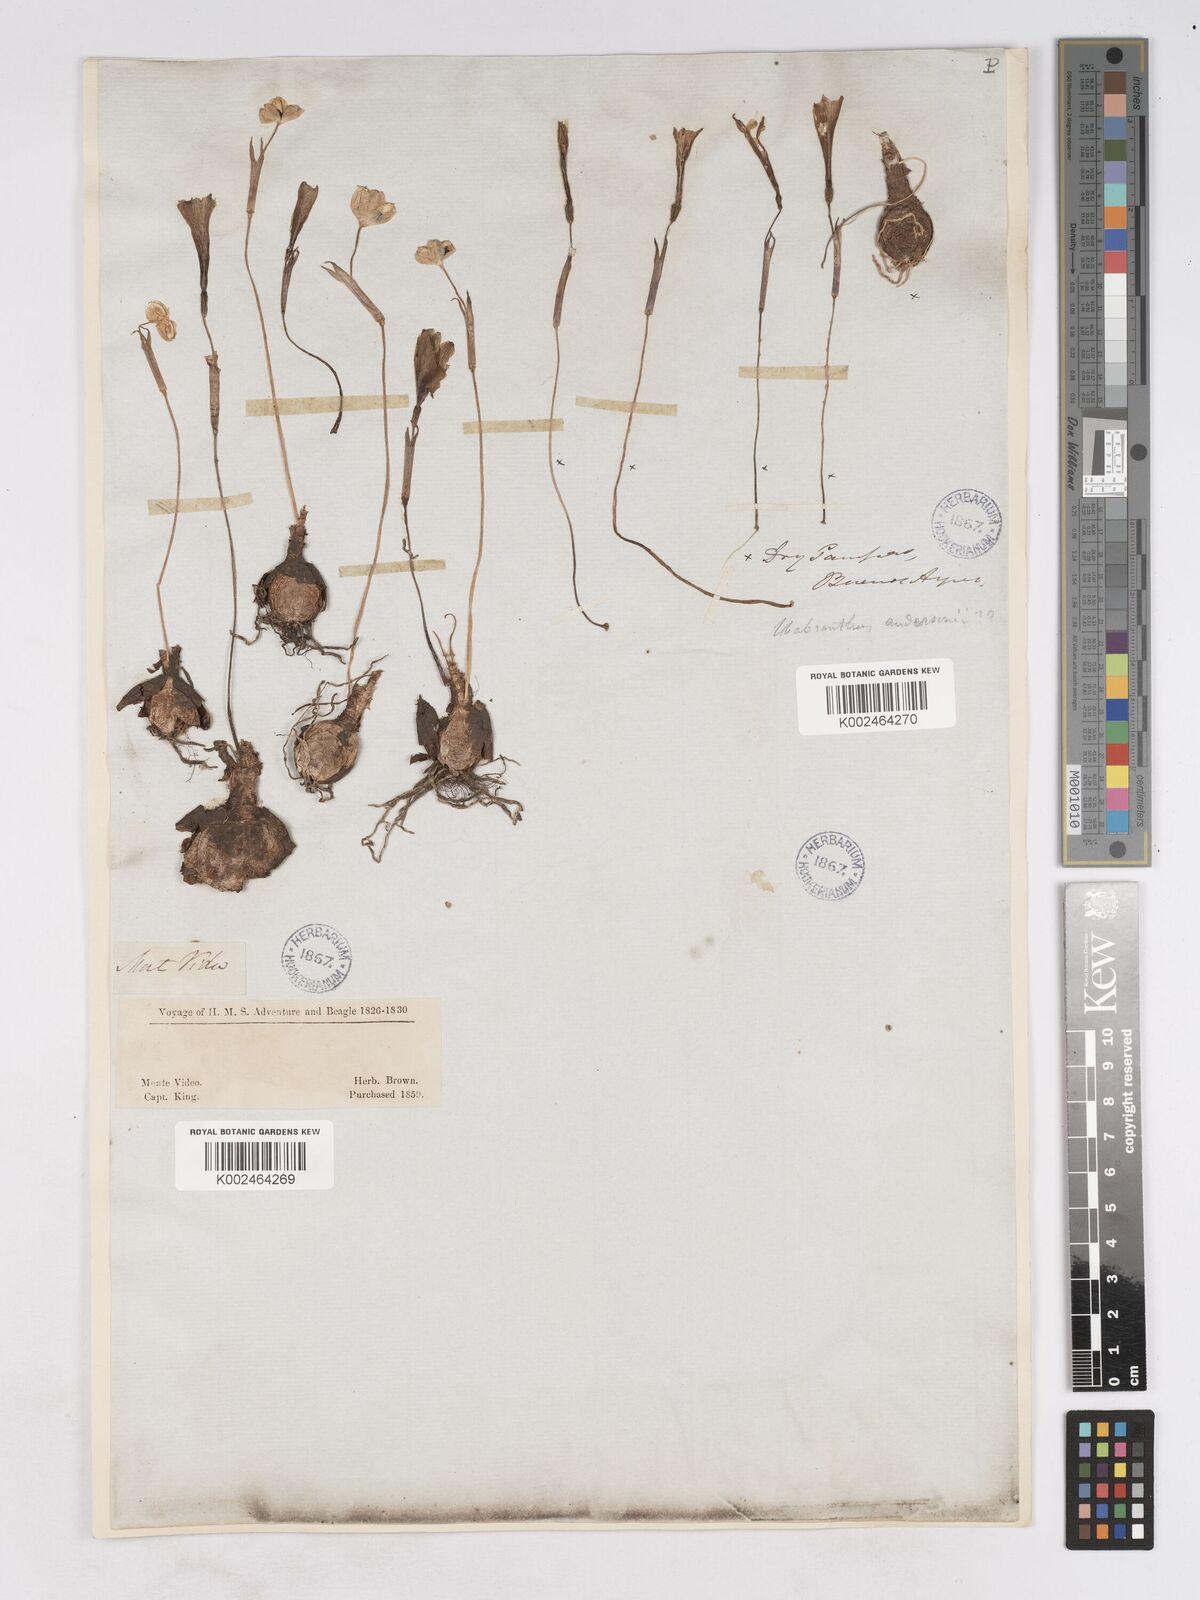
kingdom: Plantae
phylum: Tracheophyta
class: Liliopsida
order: Asparagales
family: Amaryllidaceae
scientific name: Amaryllidaceae
